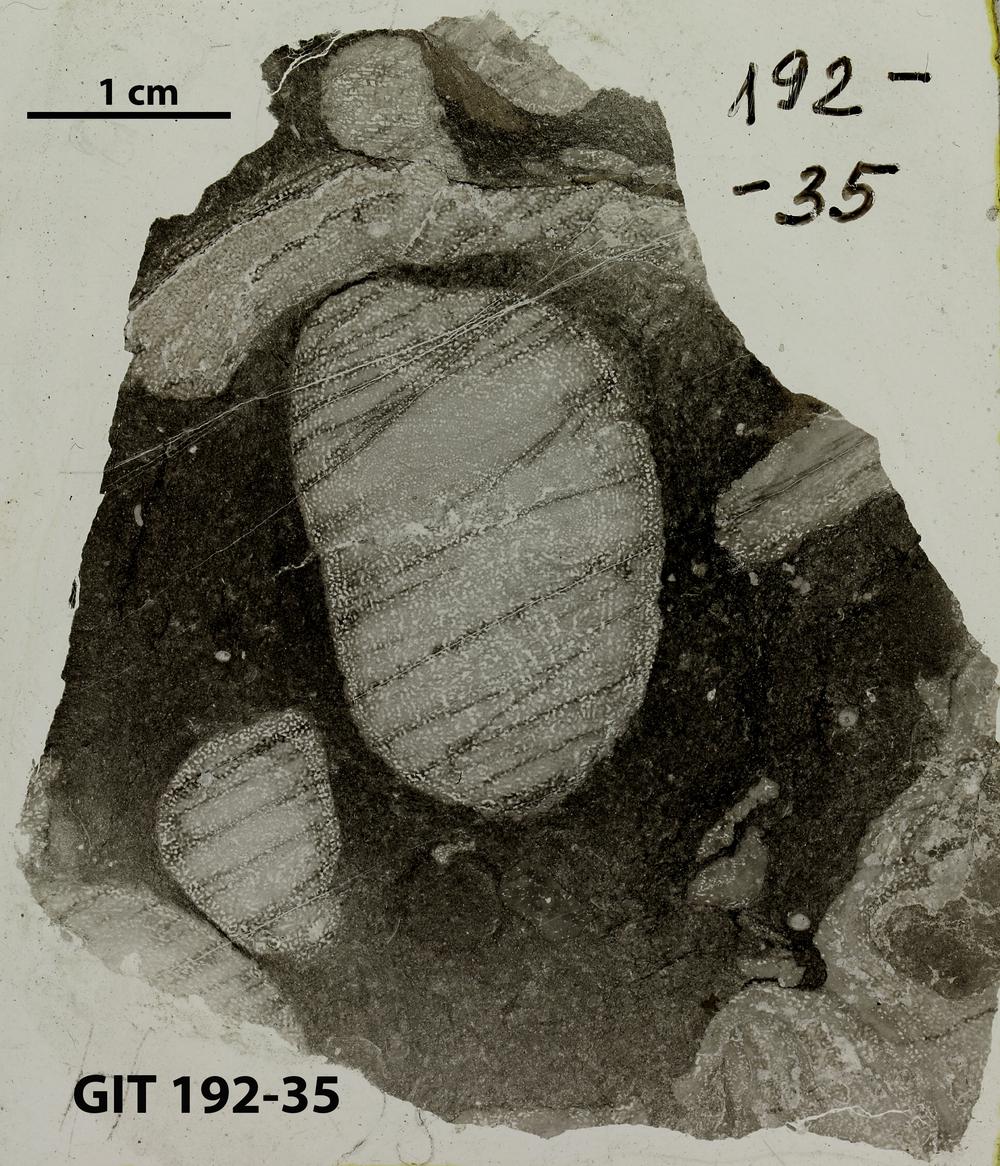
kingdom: Animalia
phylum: Porifera
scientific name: Porifera
